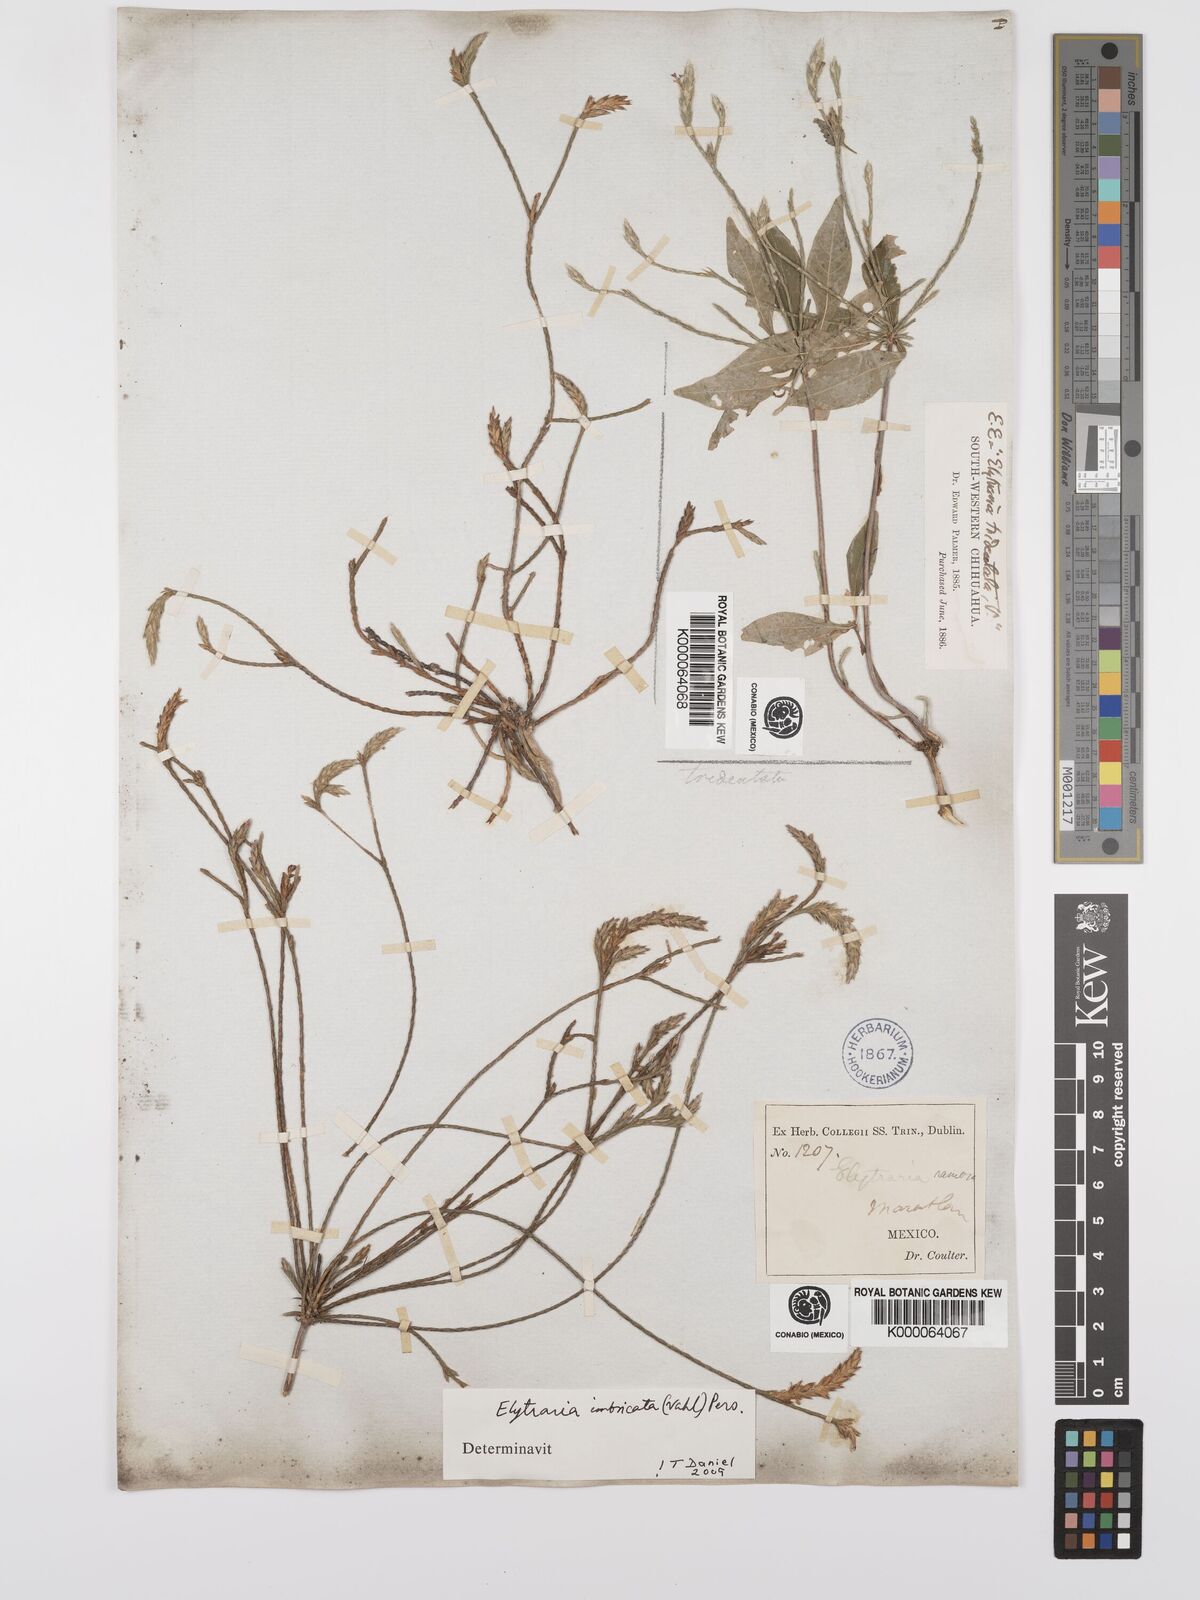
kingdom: Plantae
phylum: Tracheophyta
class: Magnoliopsida
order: Lamiales
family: Acanthaceae
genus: Elytraria
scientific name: Elytraria imbricata
